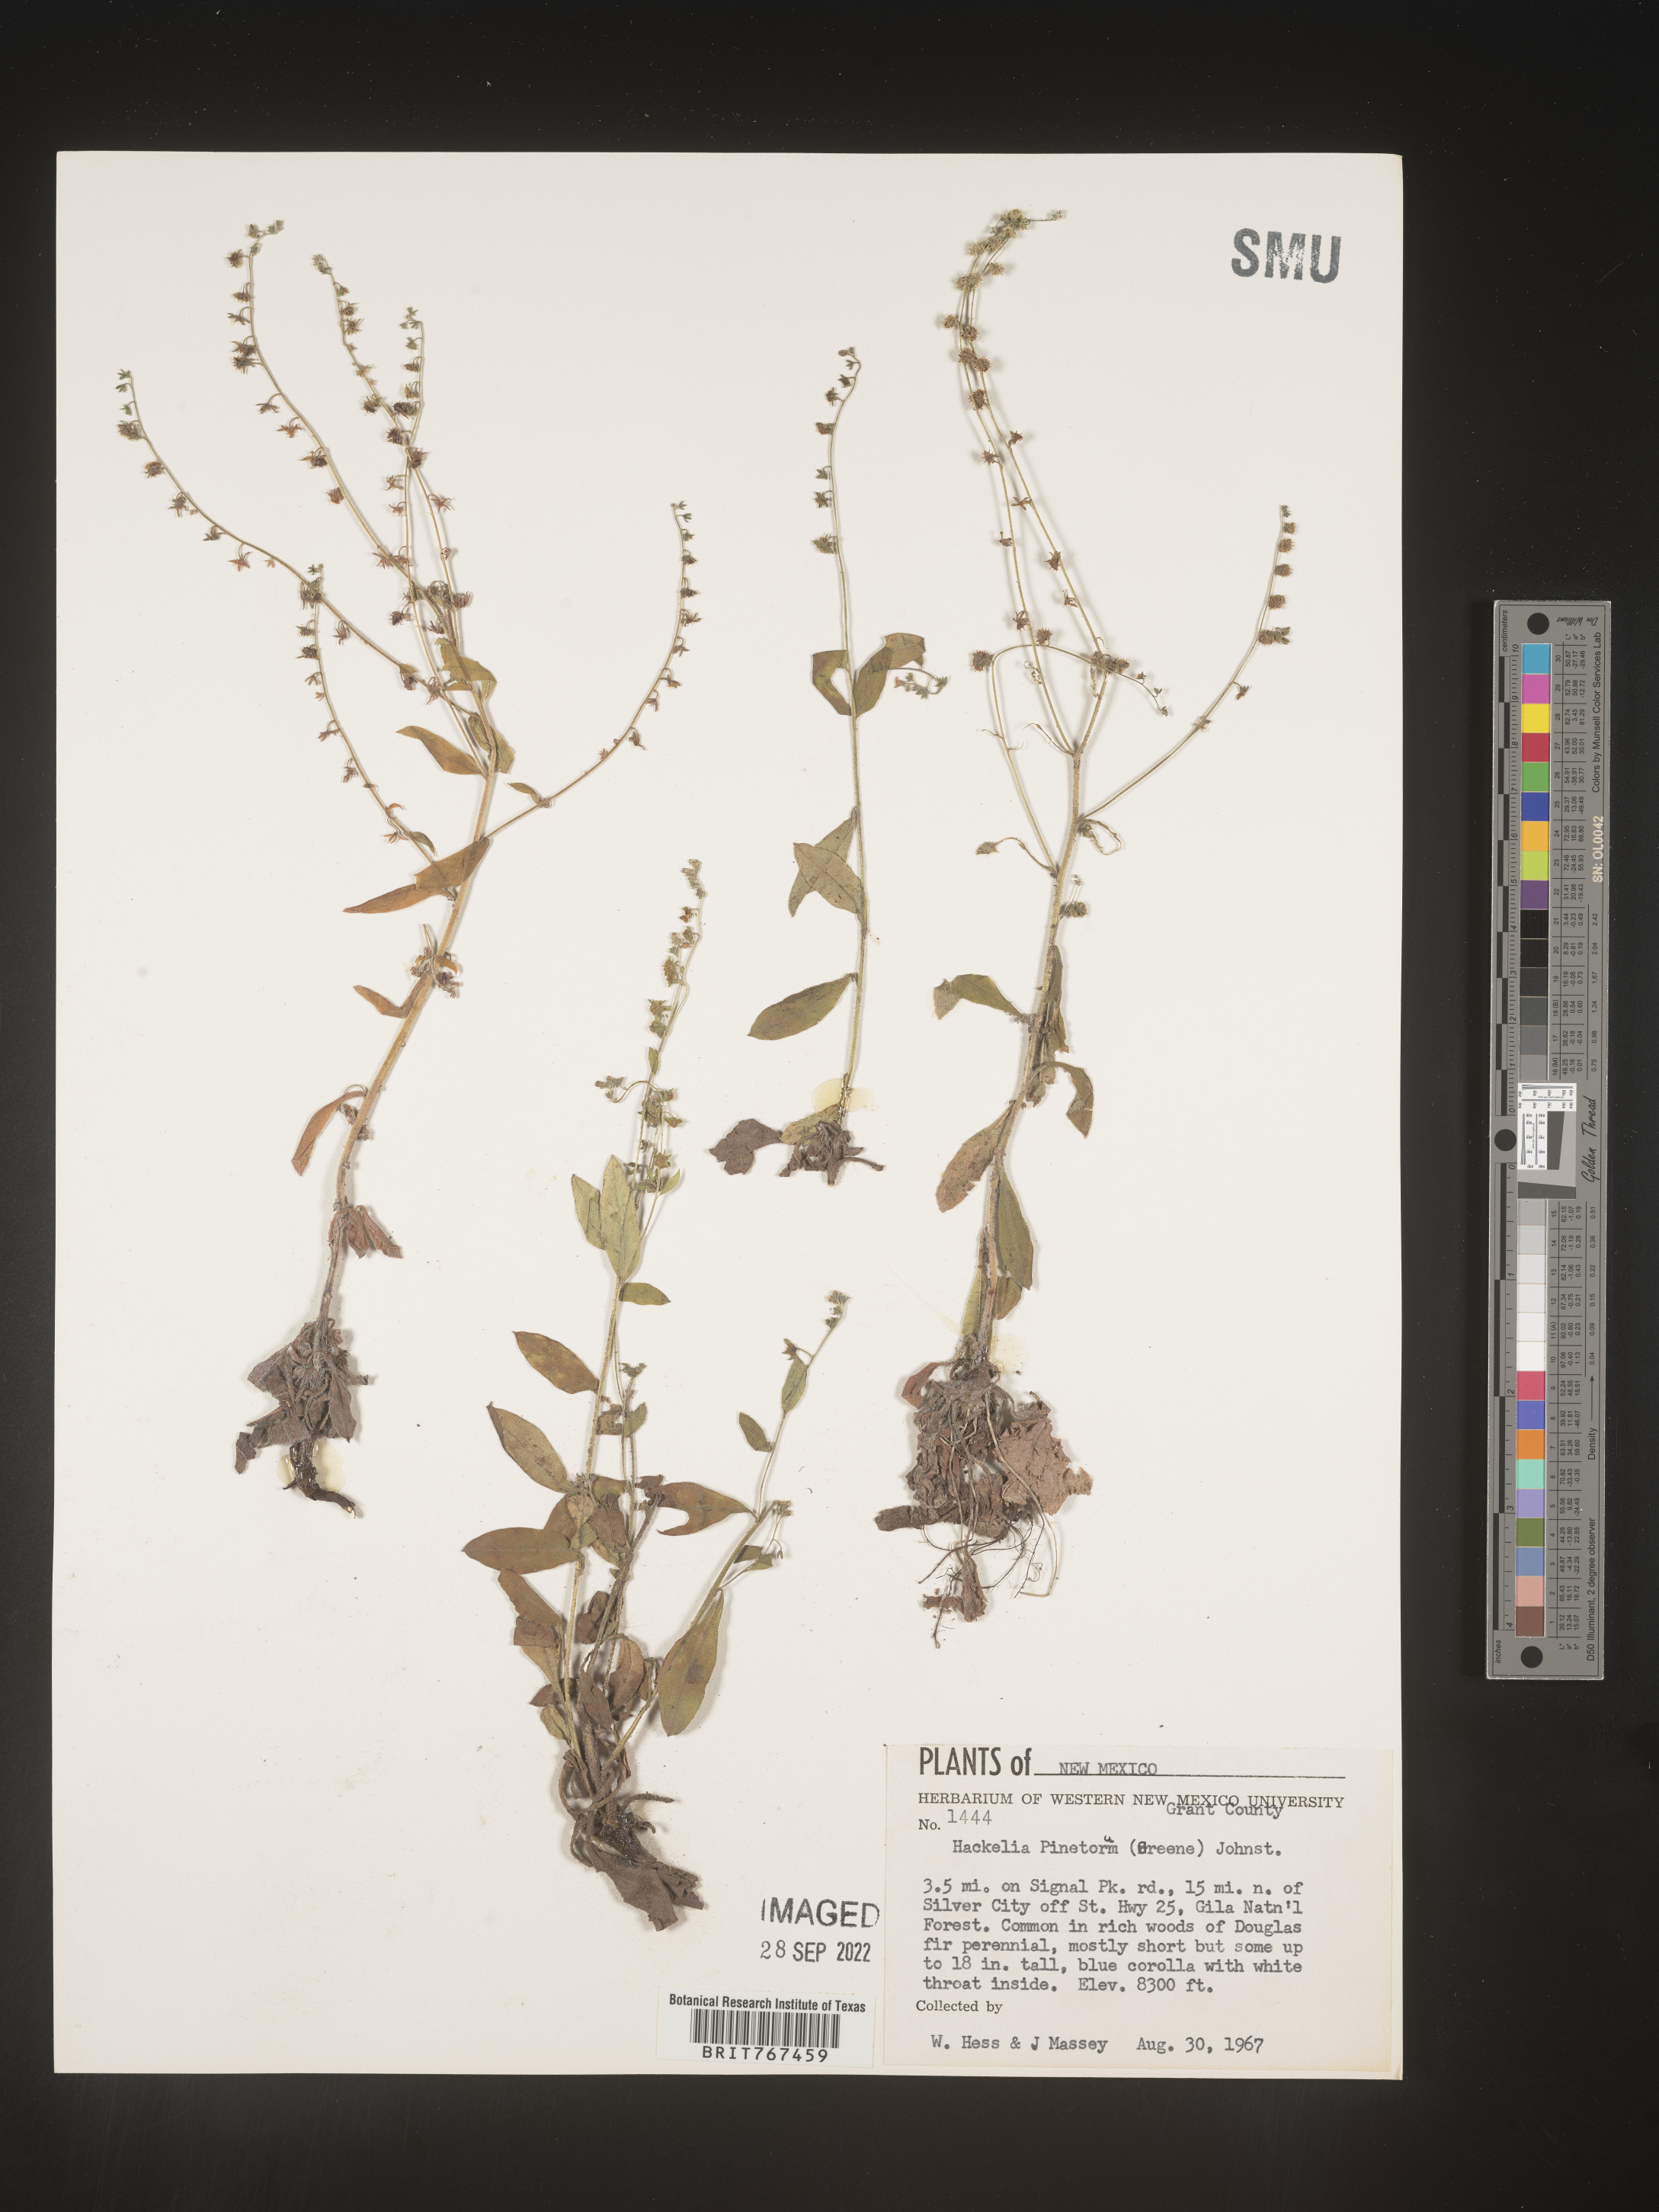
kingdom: Plantae
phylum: Tracheophyta
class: Magnoliopsida
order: Boraginales
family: Boraginaceae
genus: Hackelia
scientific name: Hackelia
